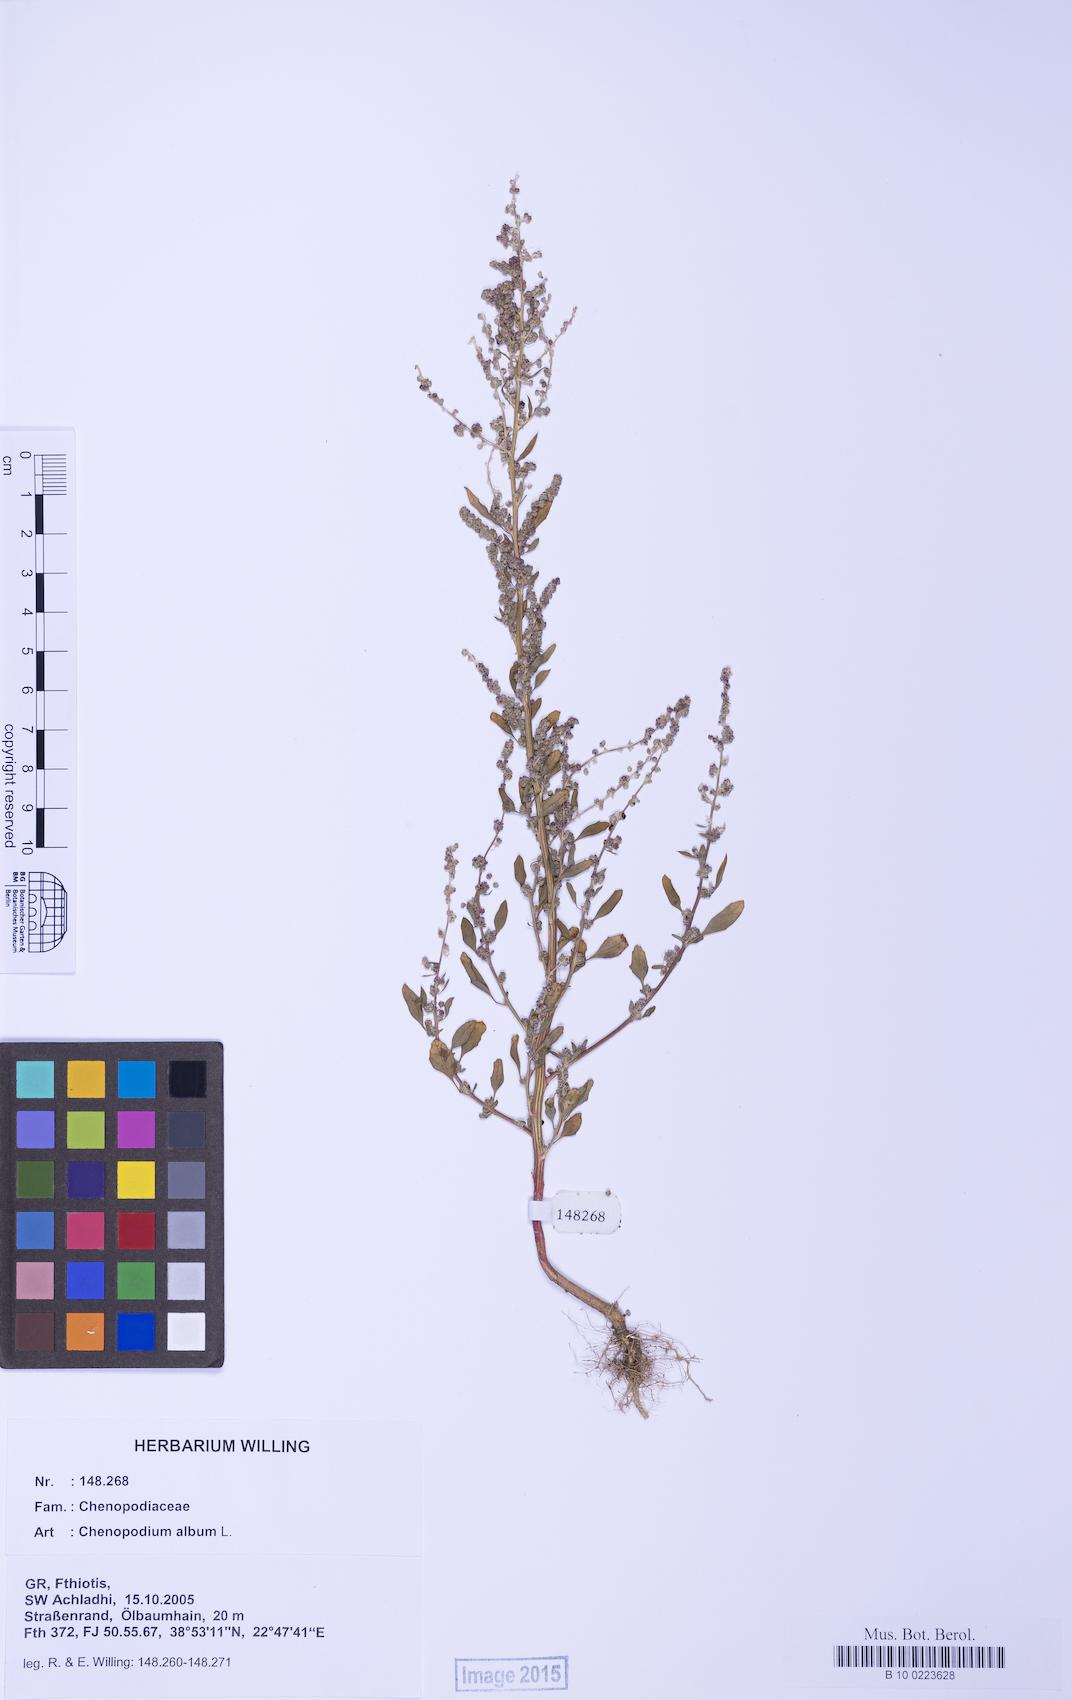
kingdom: Plantae
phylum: Tracheophyta
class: Magnoliopsida
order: Caryophyllales
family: Amaranthaceae
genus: Chenopodium
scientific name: Chenopodium album
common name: Fat-hen
